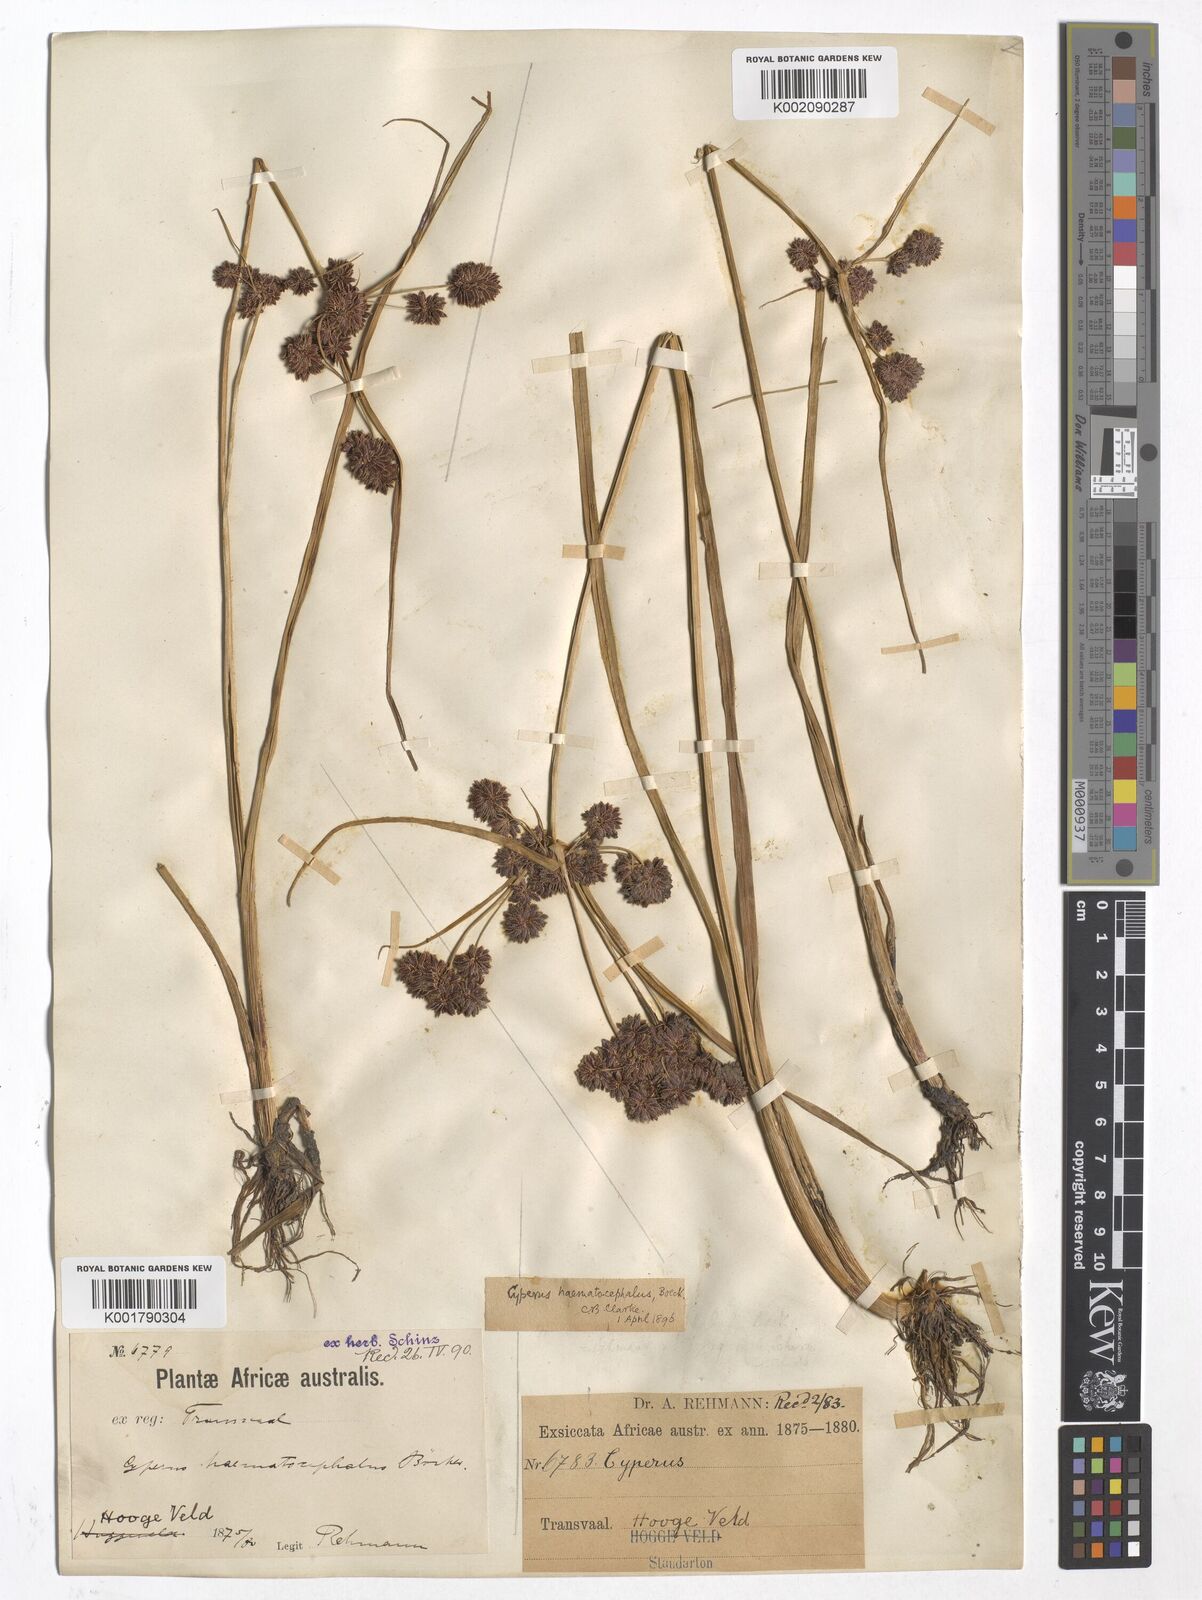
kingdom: Plantae
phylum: Tracheophyta
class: Liliopsida
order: Poales
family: Cyperaceae
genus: Cyperus
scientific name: Cyperus haematocephalus
